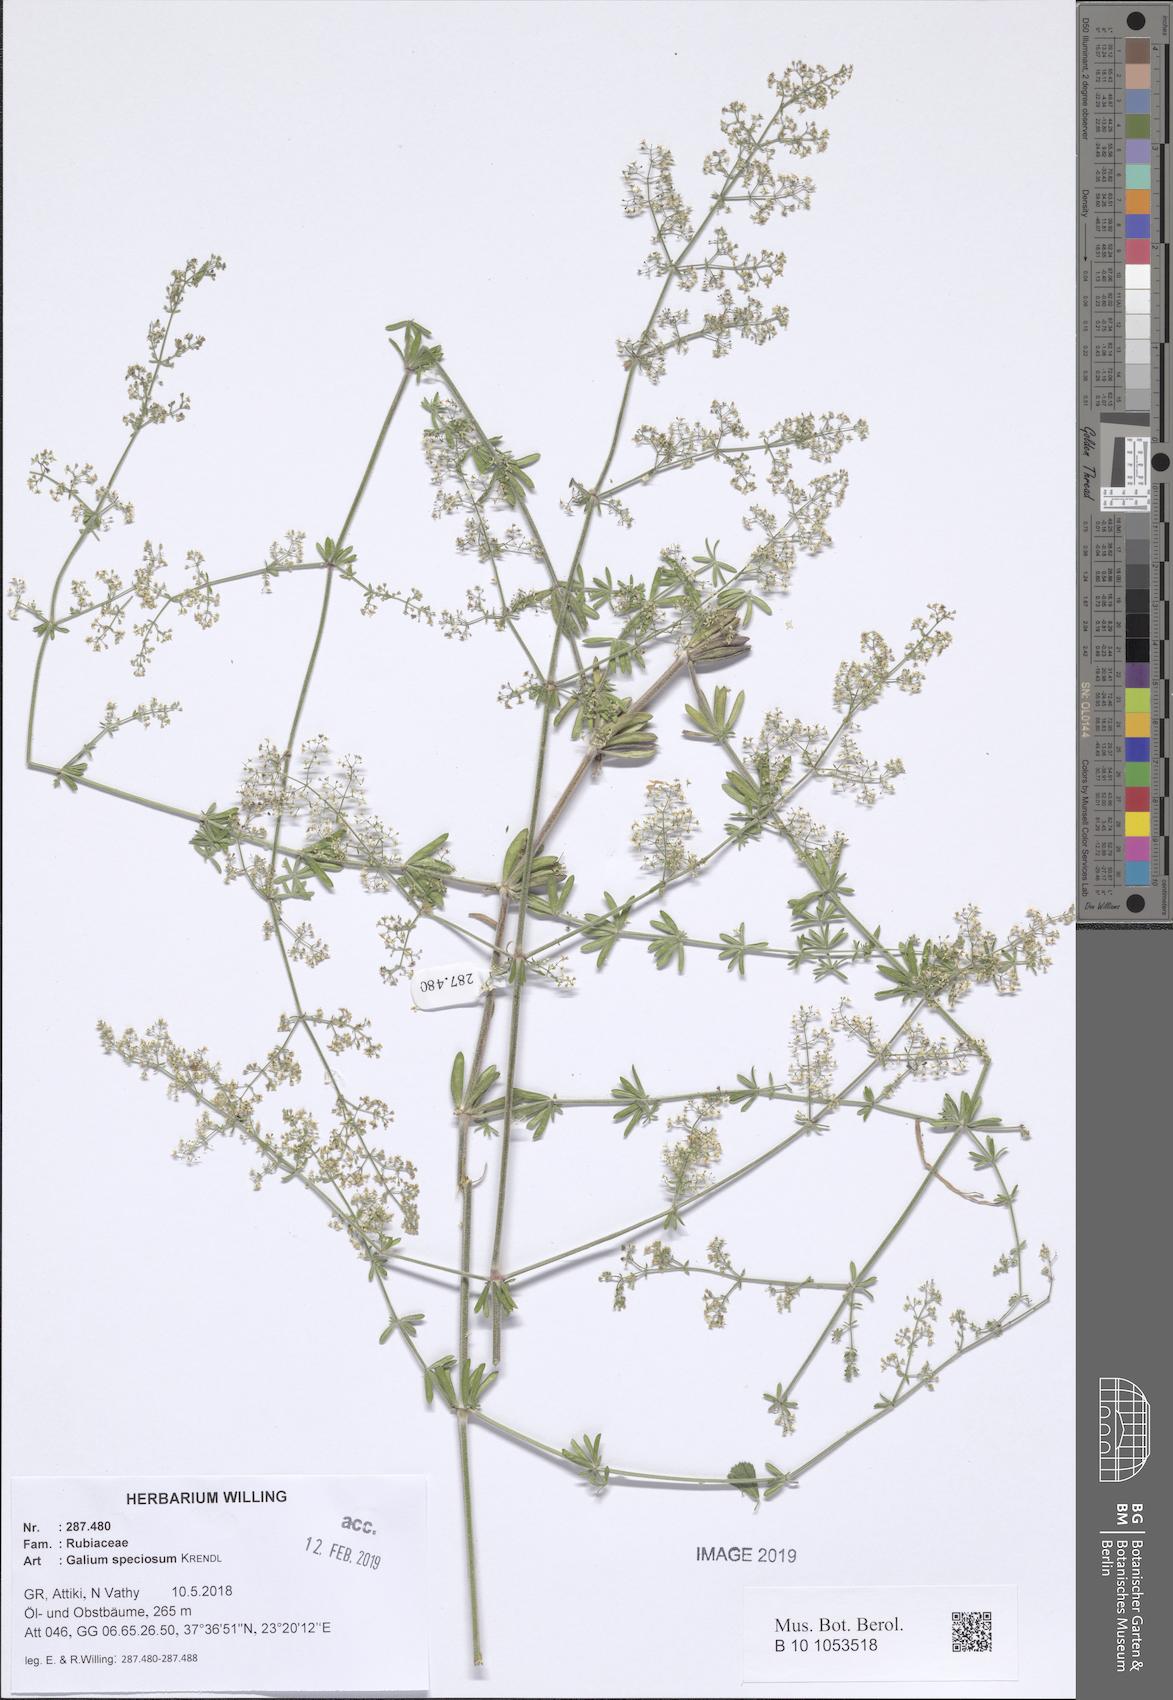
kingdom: Plantae
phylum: Tracheophyta
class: Magnoliopsida
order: Gentianales
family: Rubiaceae
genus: Galium
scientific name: Galium speciosum
